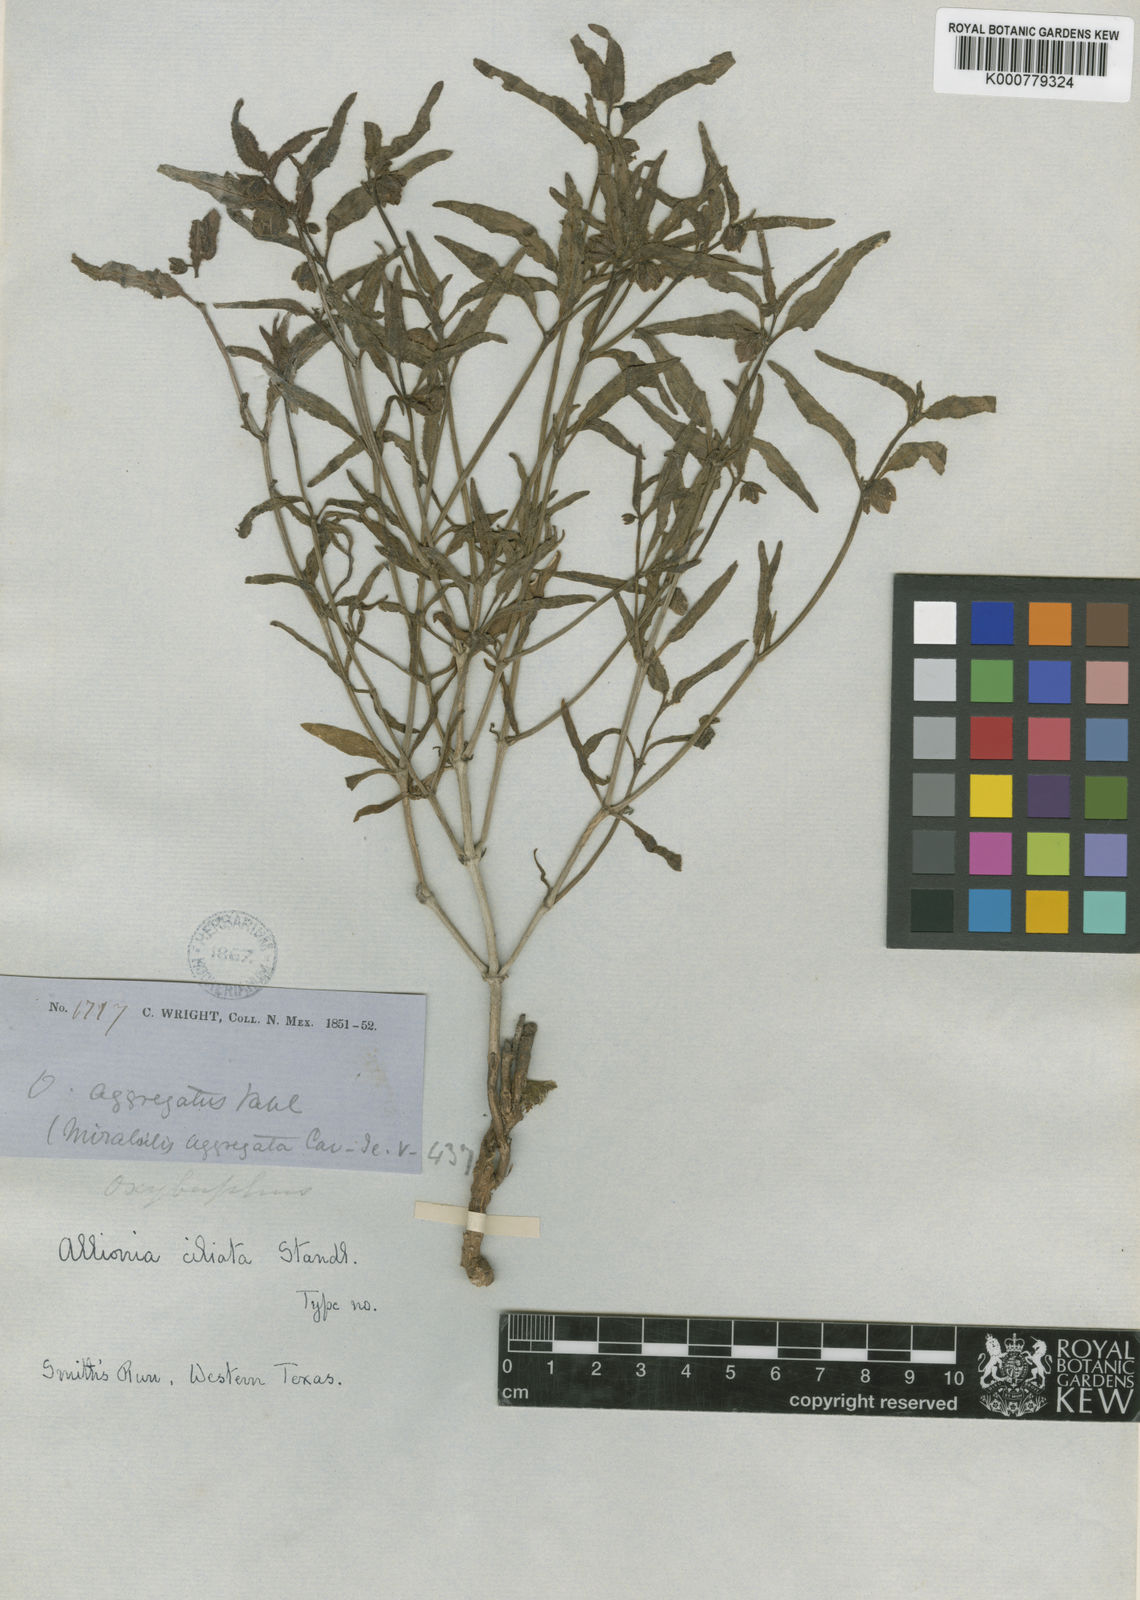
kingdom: Plantae
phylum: Tracheophyta
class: Magnoliopsida
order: Caryophyllales
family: Nyctaginaceae
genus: Mirabilis
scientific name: Mirabilis albida
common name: Hairy four-o'clock
